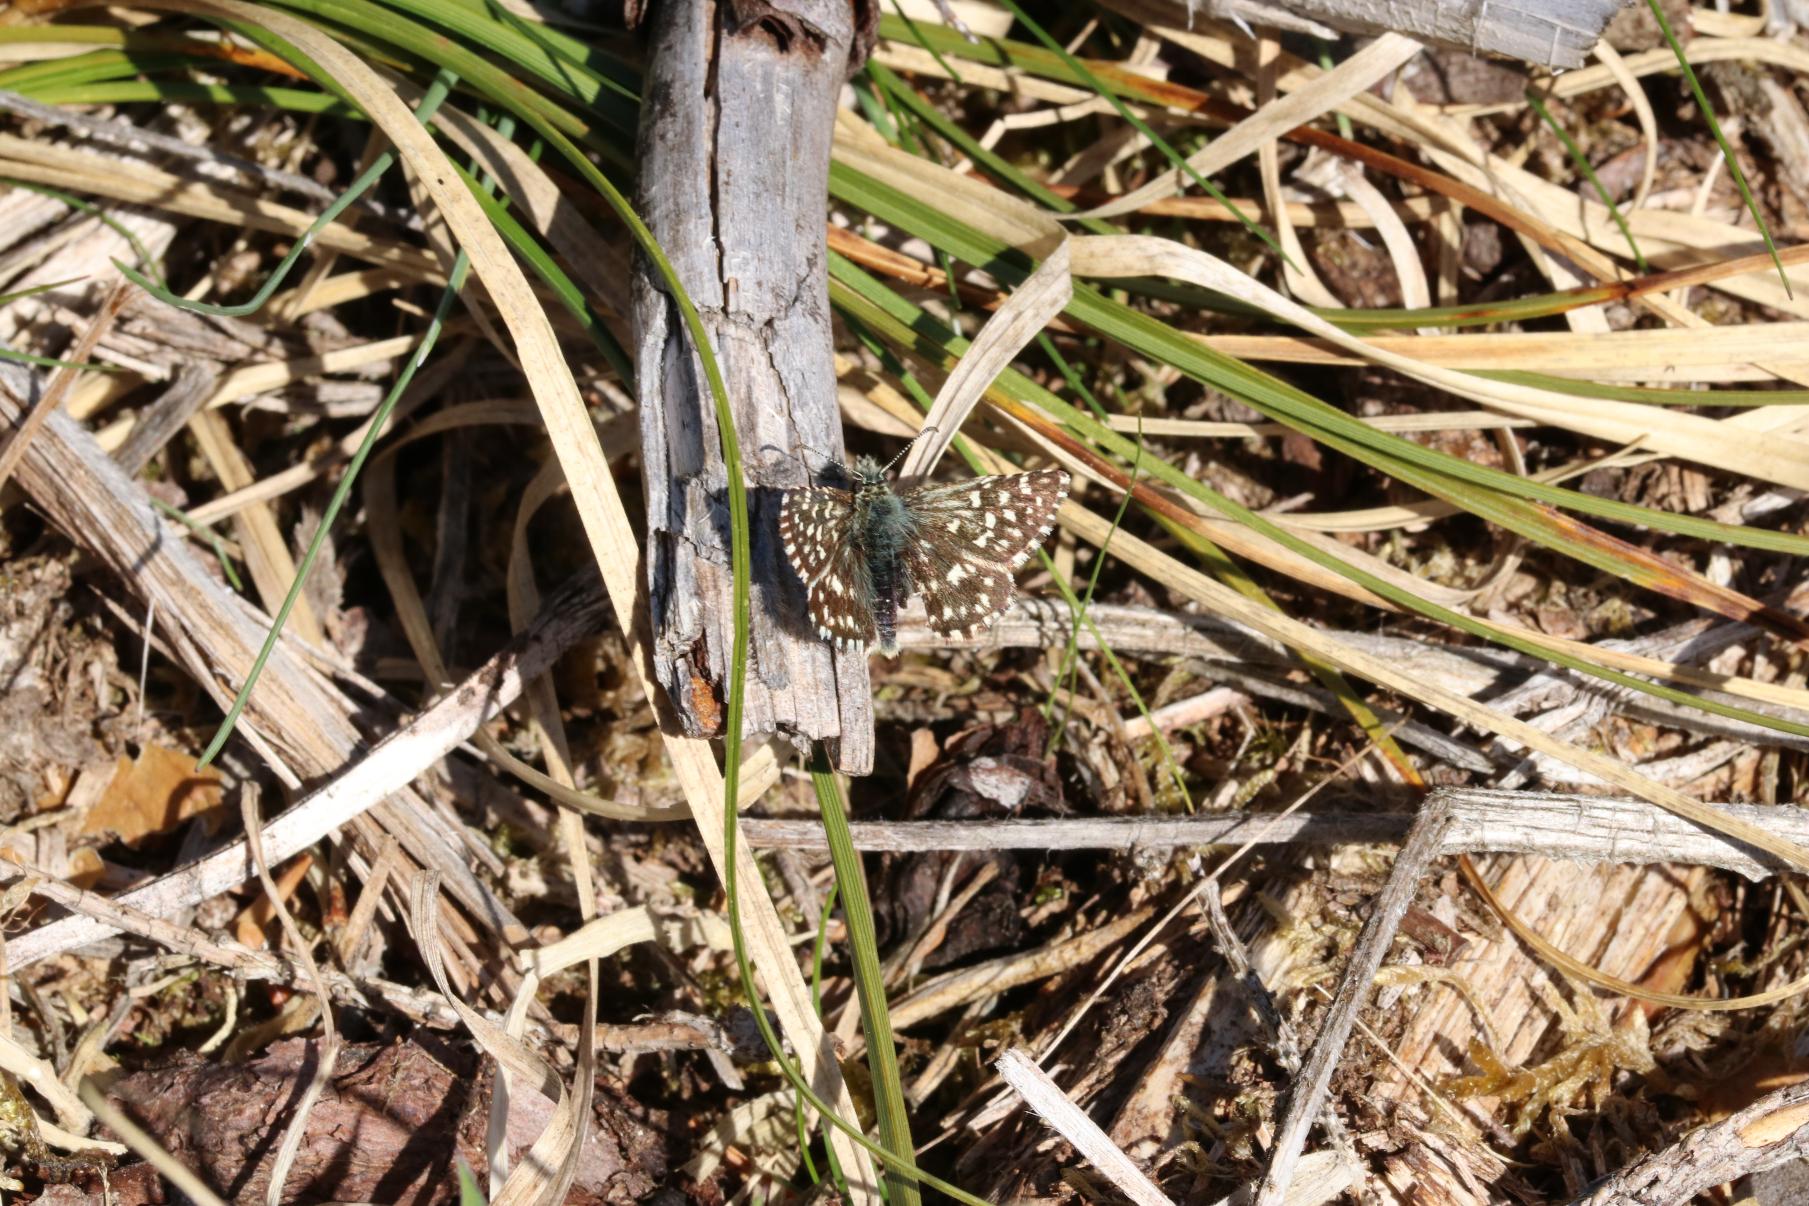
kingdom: Animalia
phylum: Arthropoda
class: Insecta
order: Lepidoptera
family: Hesperiidae
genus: Pyrgus
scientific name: Pyrgus malvae
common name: Spættet bredpande
